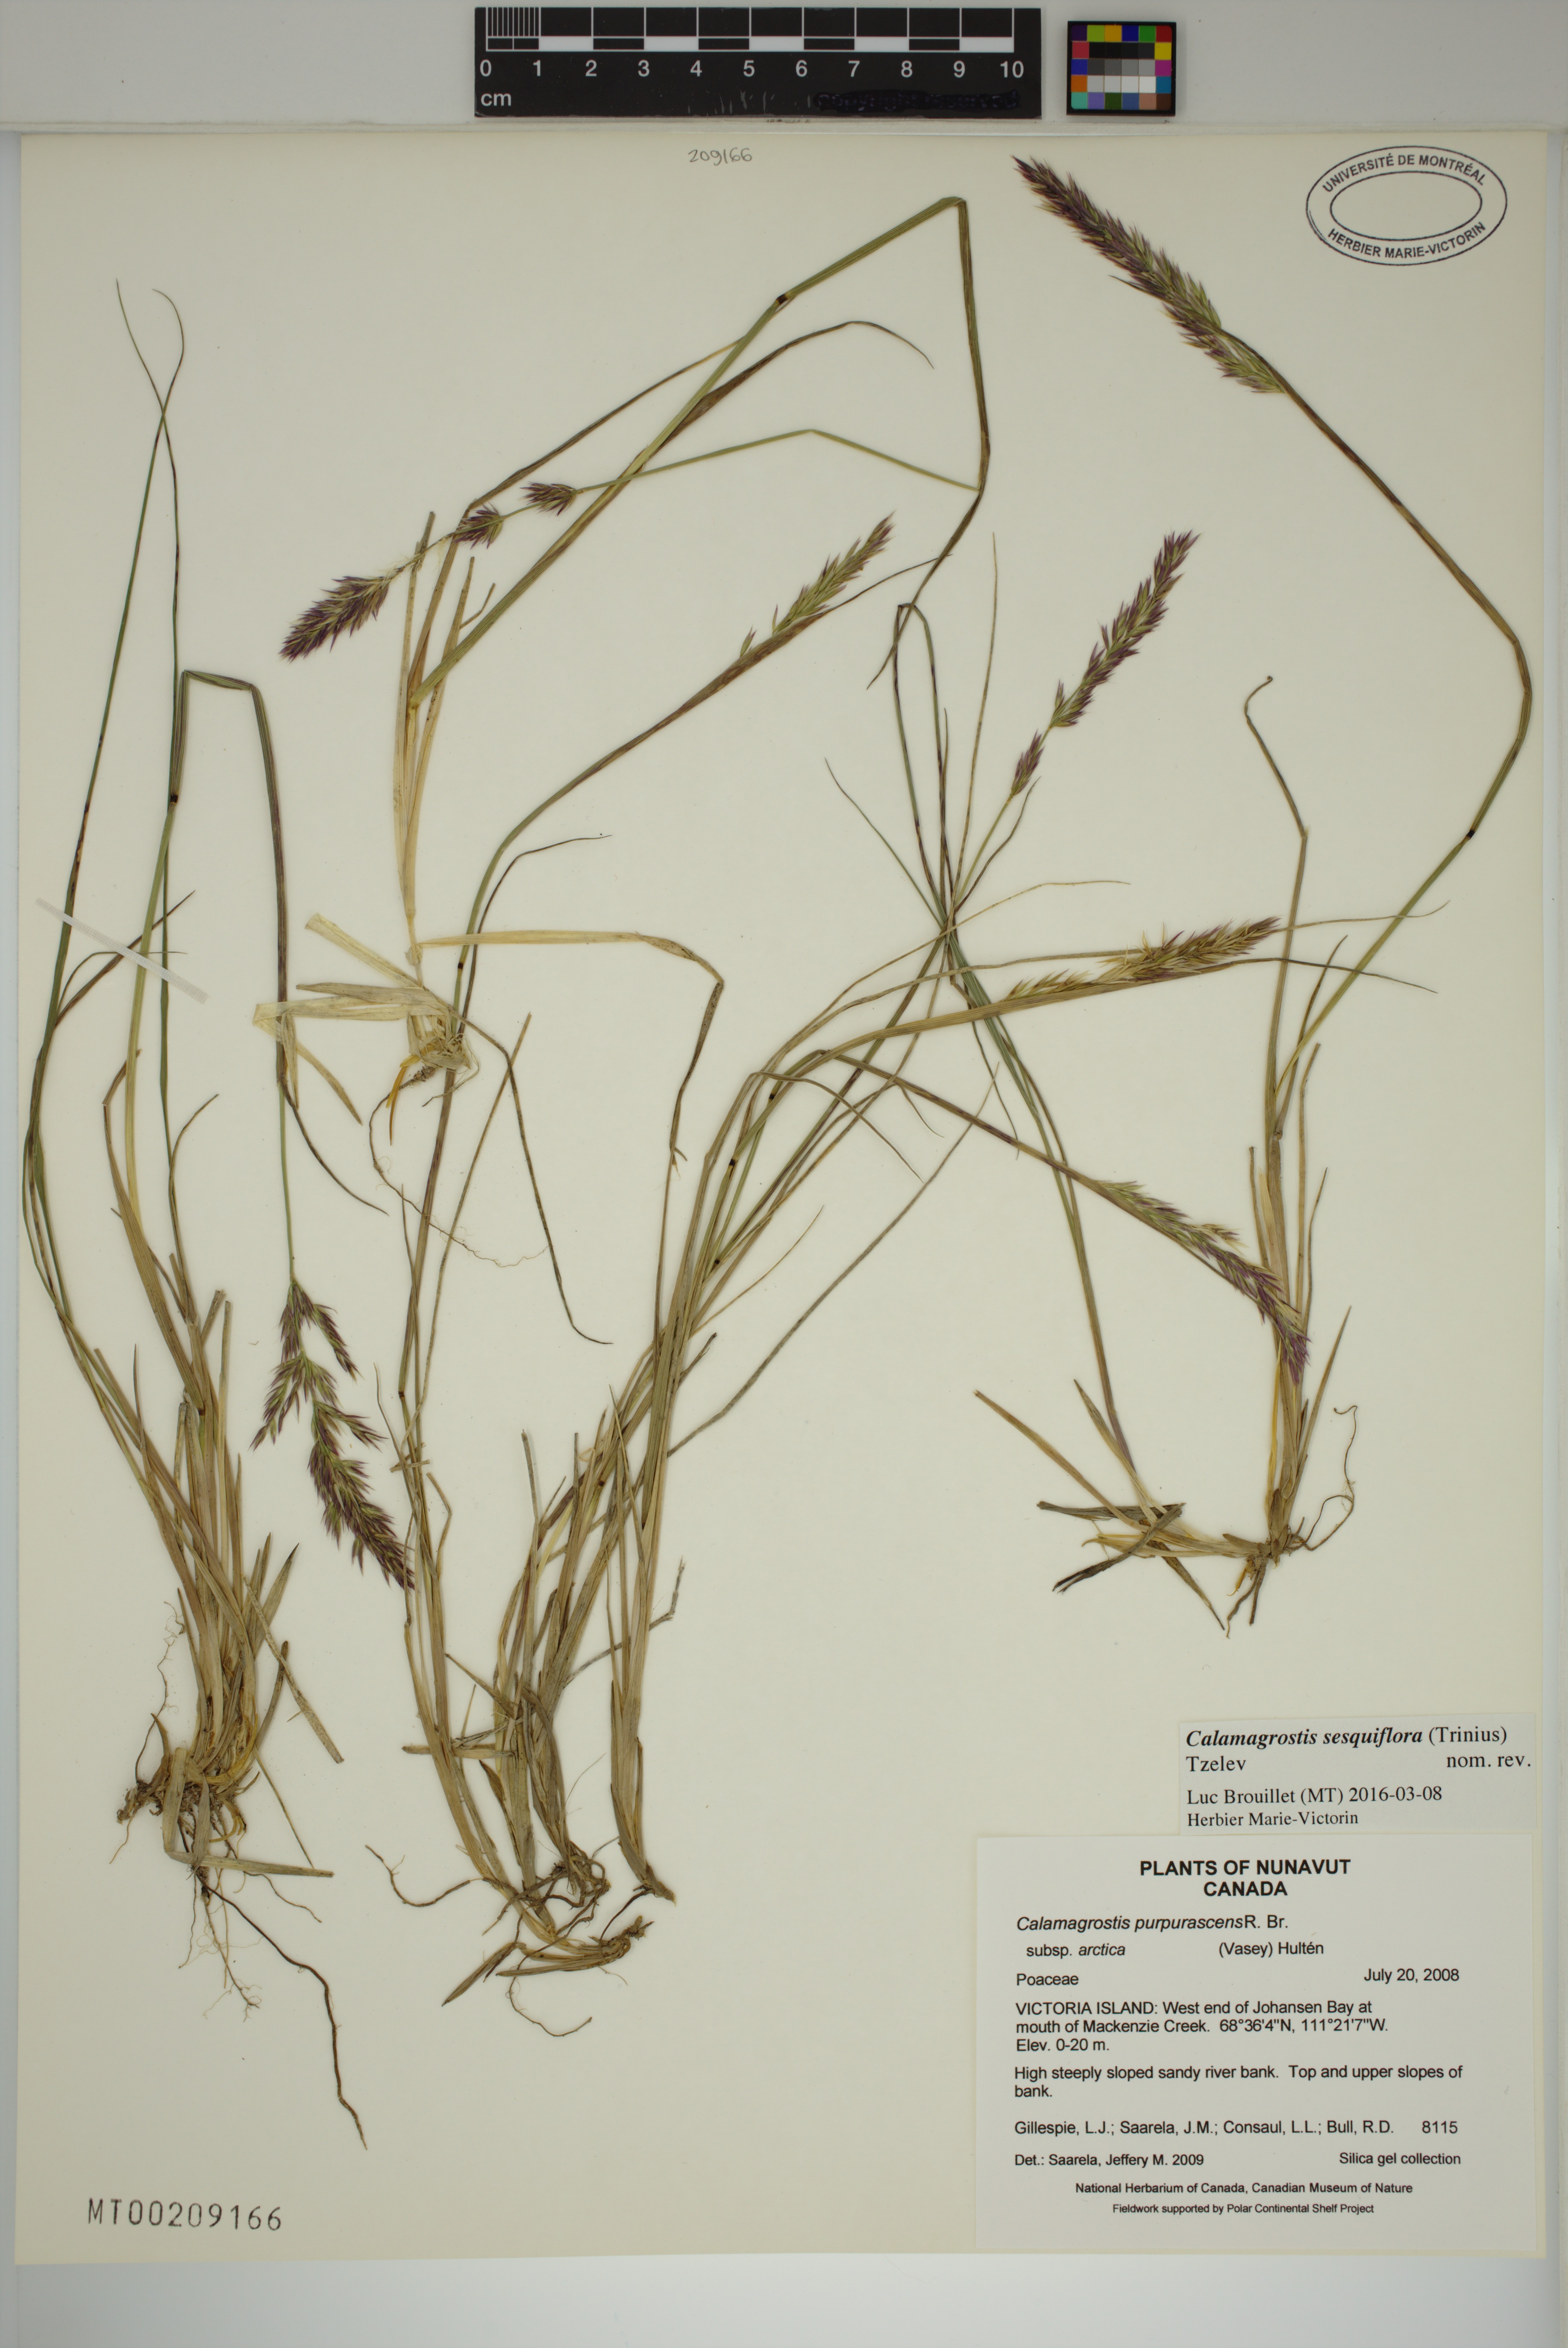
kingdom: Plantae
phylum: Tracheophyta
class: Liliopsida
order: Poales
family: Poaceae
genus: Calamagrostis
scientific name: Calamagrostis sesquiflora
